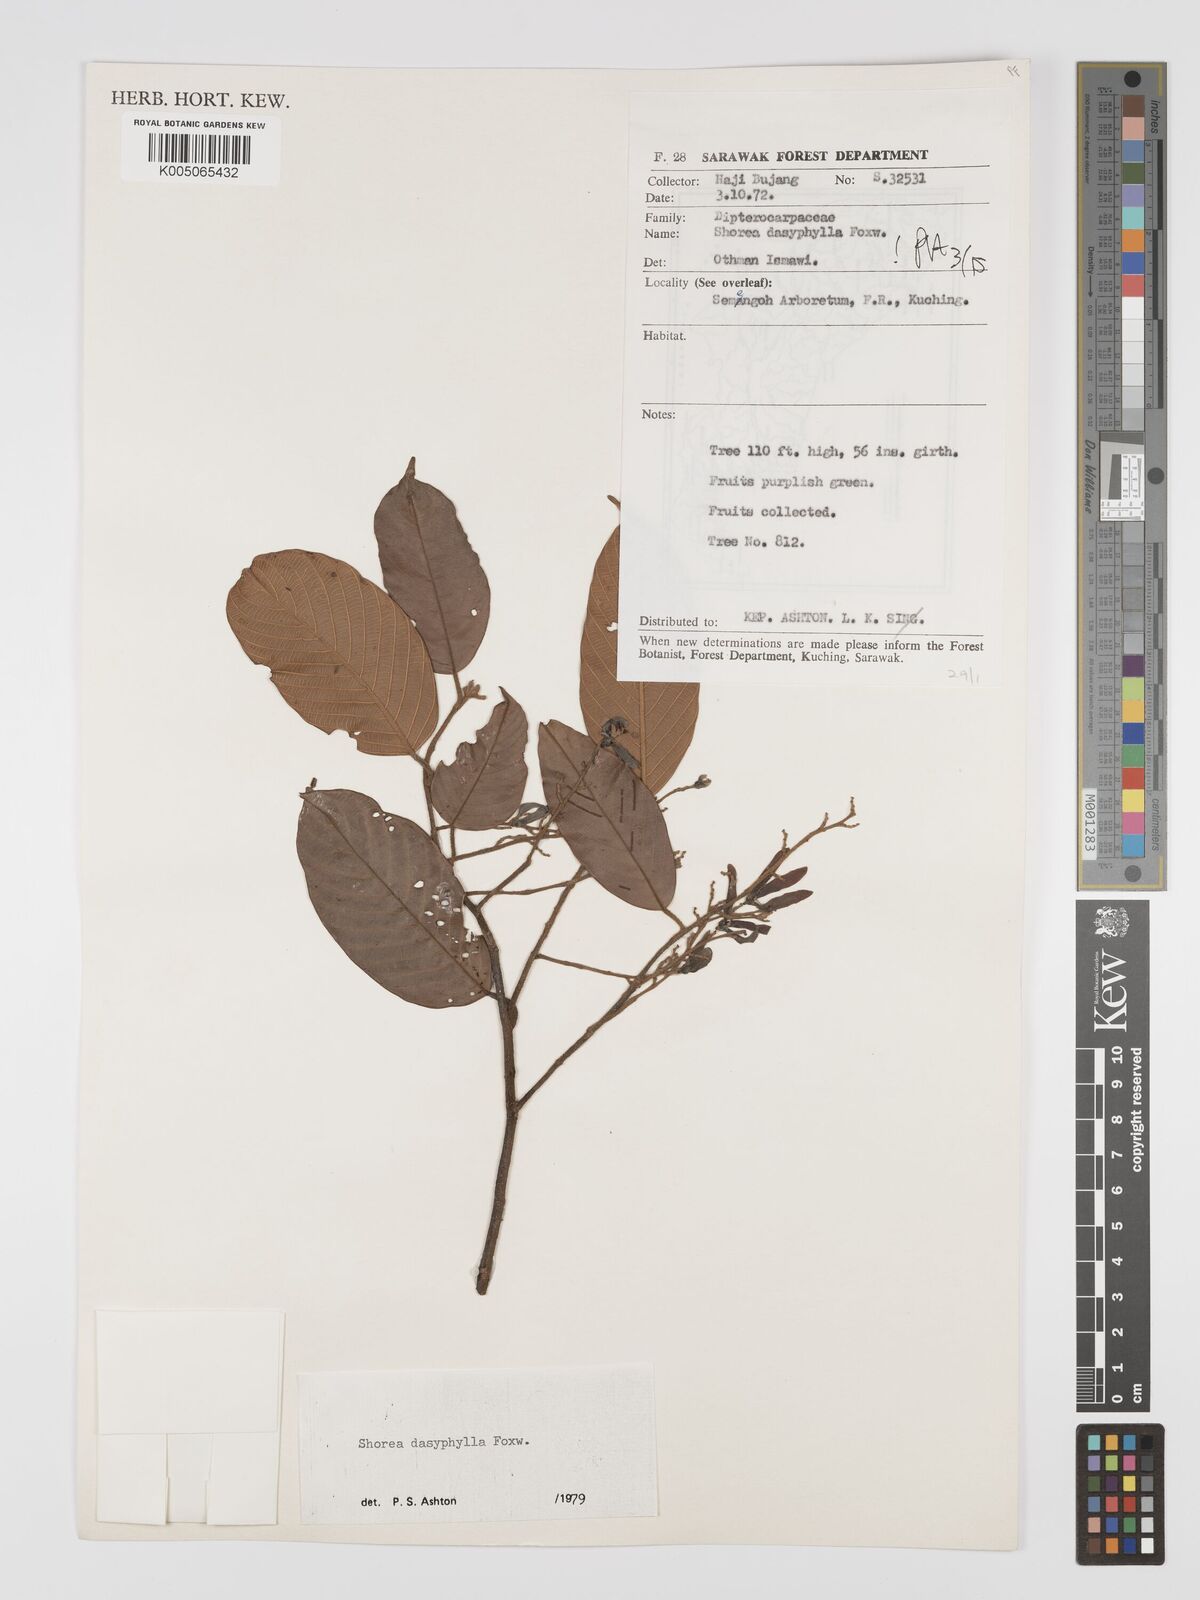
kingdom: Plantae
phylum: Tracheophyta
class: Magnoliopsida
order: Malvales
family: Dipterocarpaceae
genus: Shorea
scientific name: Shorea dasyphylla
